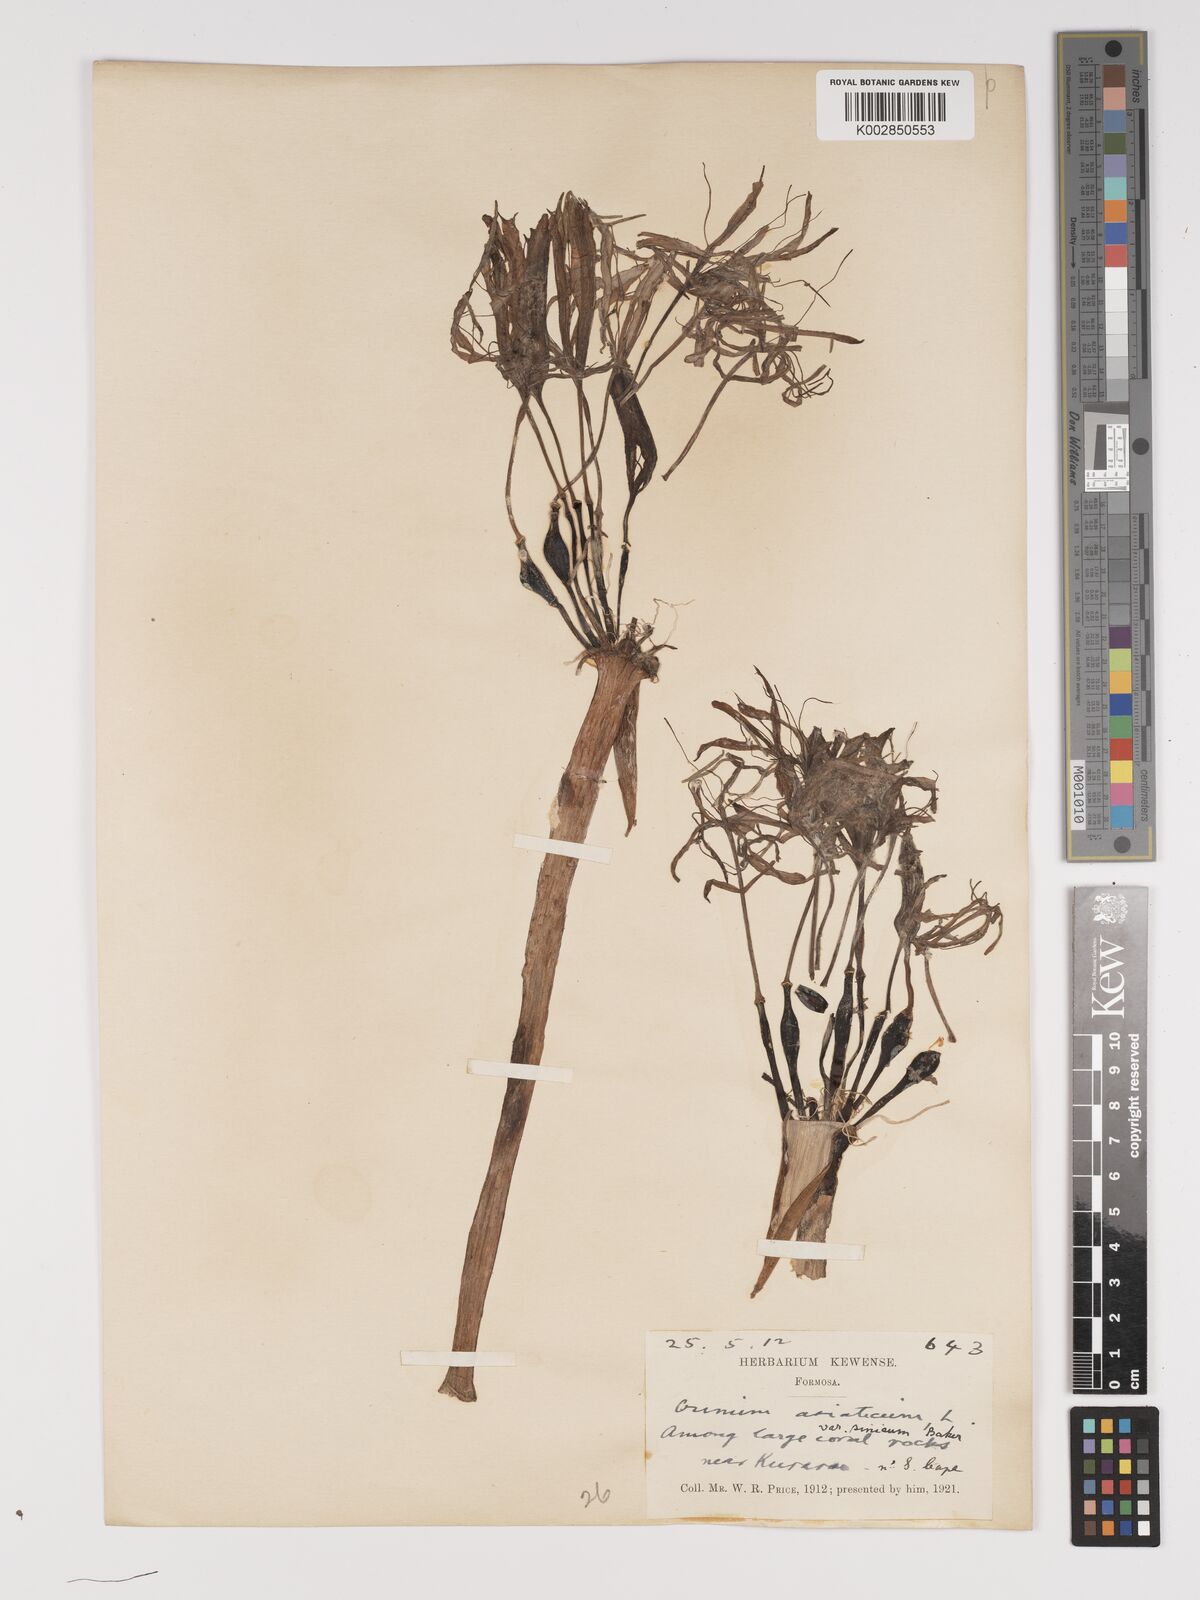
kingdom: Plantae
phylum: Tracheophyta
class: Liliopsida
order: Asparagales
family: Amaryllidaceae
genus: Crinum
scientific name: Crinum asiaticum
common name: Poisonbulb
